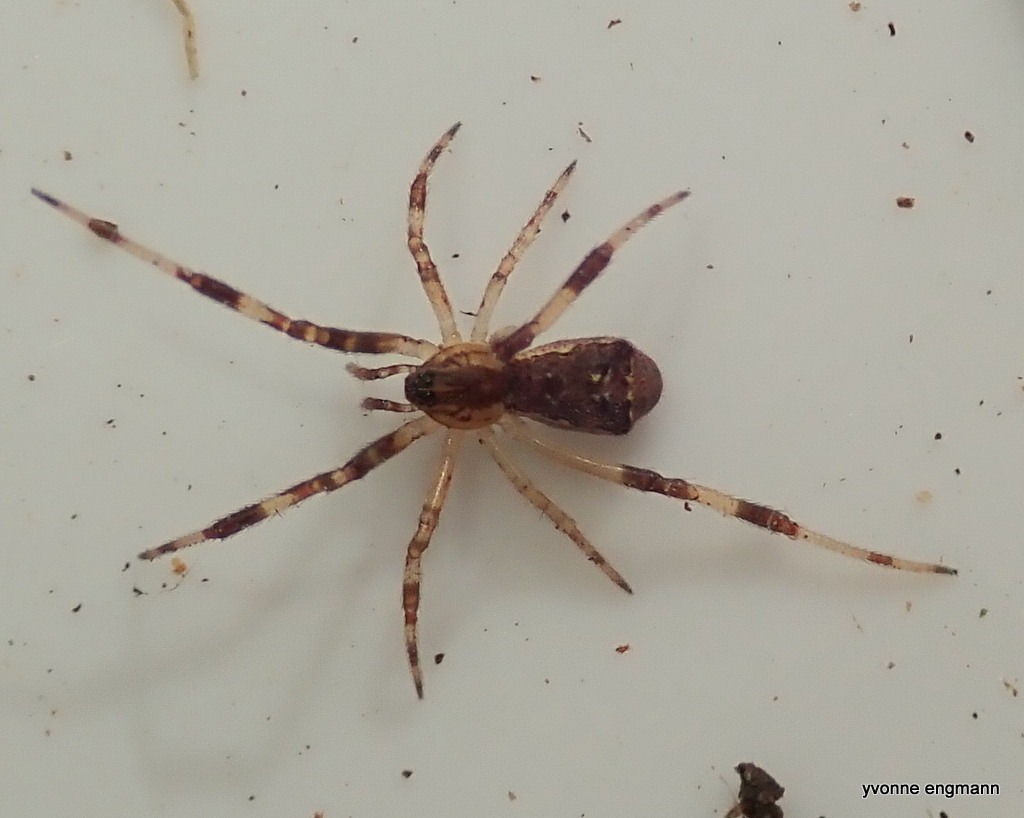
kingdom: Animalia
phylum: Arthropoda
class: Arachnida
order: Araneae
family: Theridiidae
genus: Episinus
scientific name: Episinus angulatus
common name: Balalajkaedderkop
